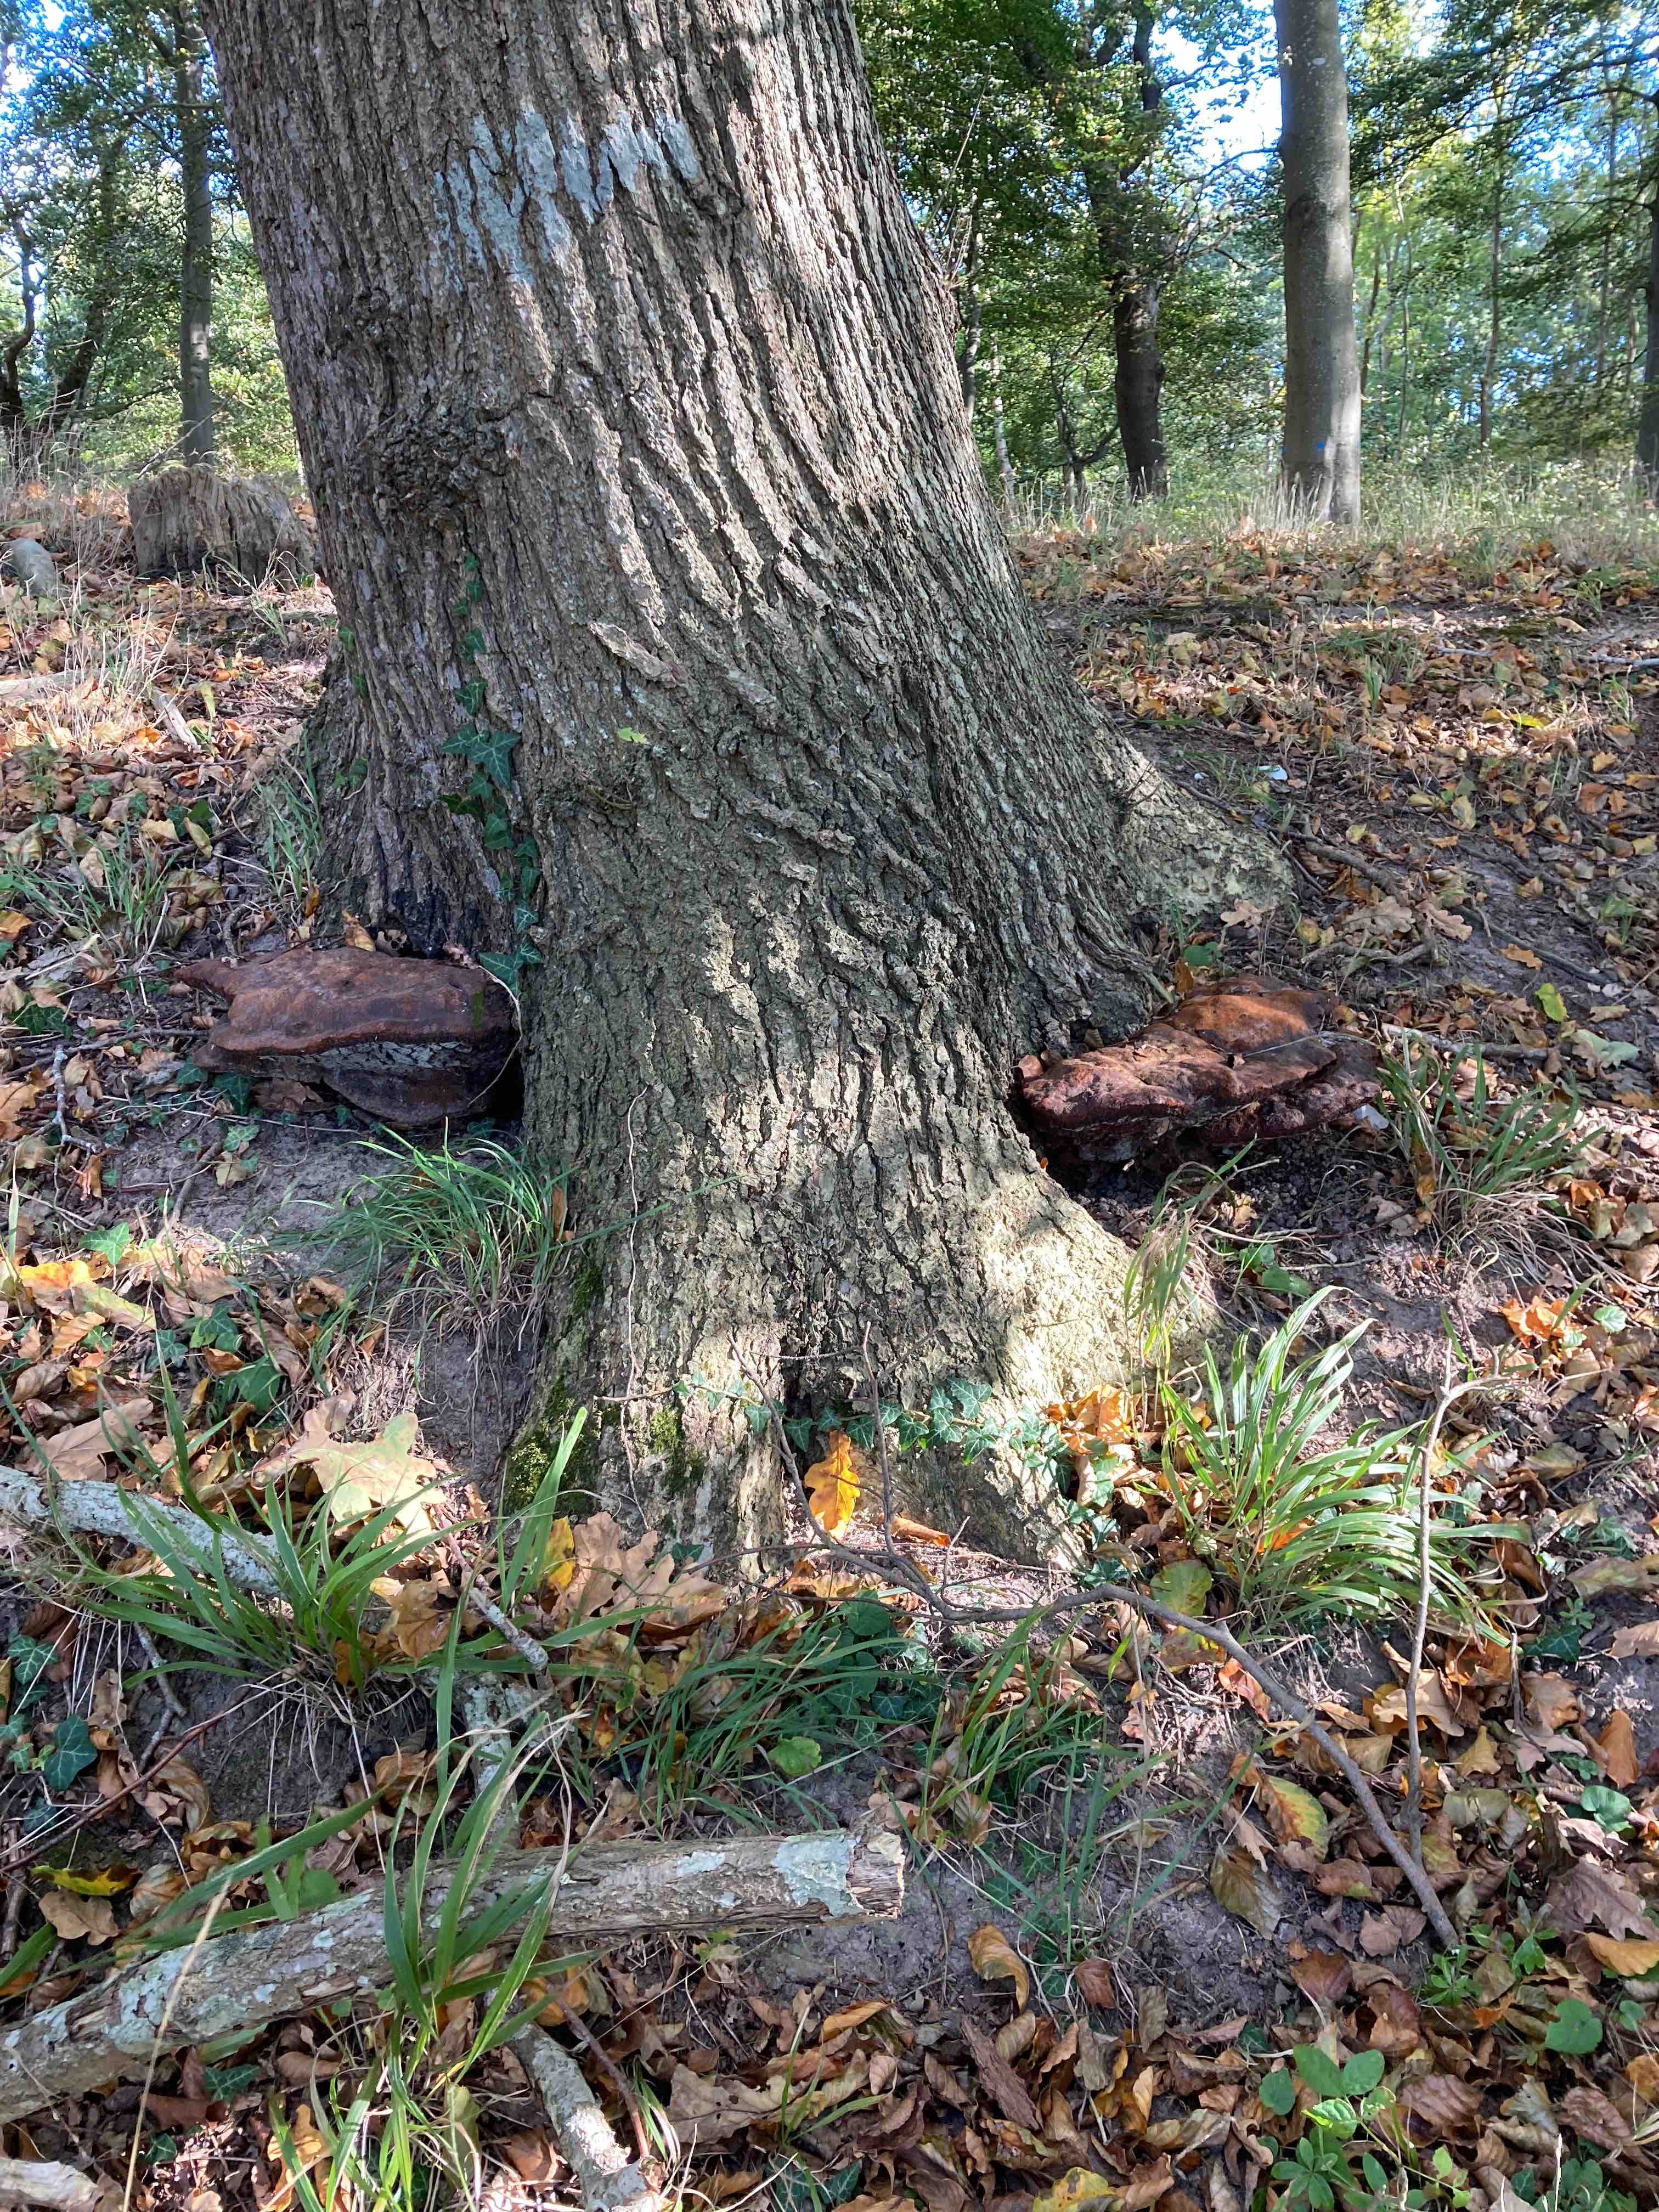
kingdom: Fungi
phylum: Basidiomycota
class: Agaricomycetes
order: Hymenochaetales
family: Hymenochaetaceae
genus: Pseudoinonotus
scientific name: Pseudoinonotus dryadeus
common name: ege-spejlporesvamp
